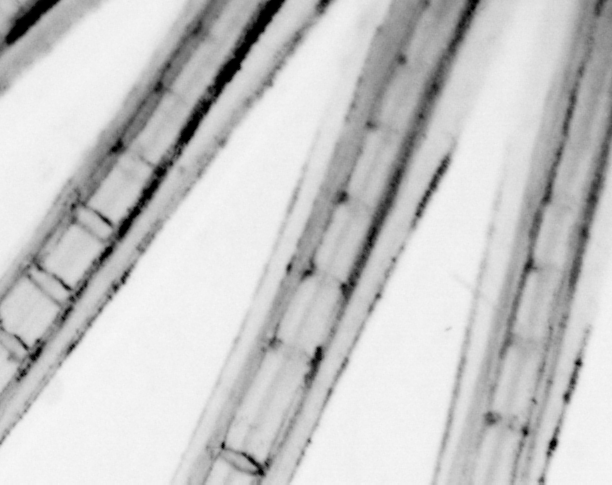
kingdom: Animalia
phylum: Chordata
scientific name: Chordata
